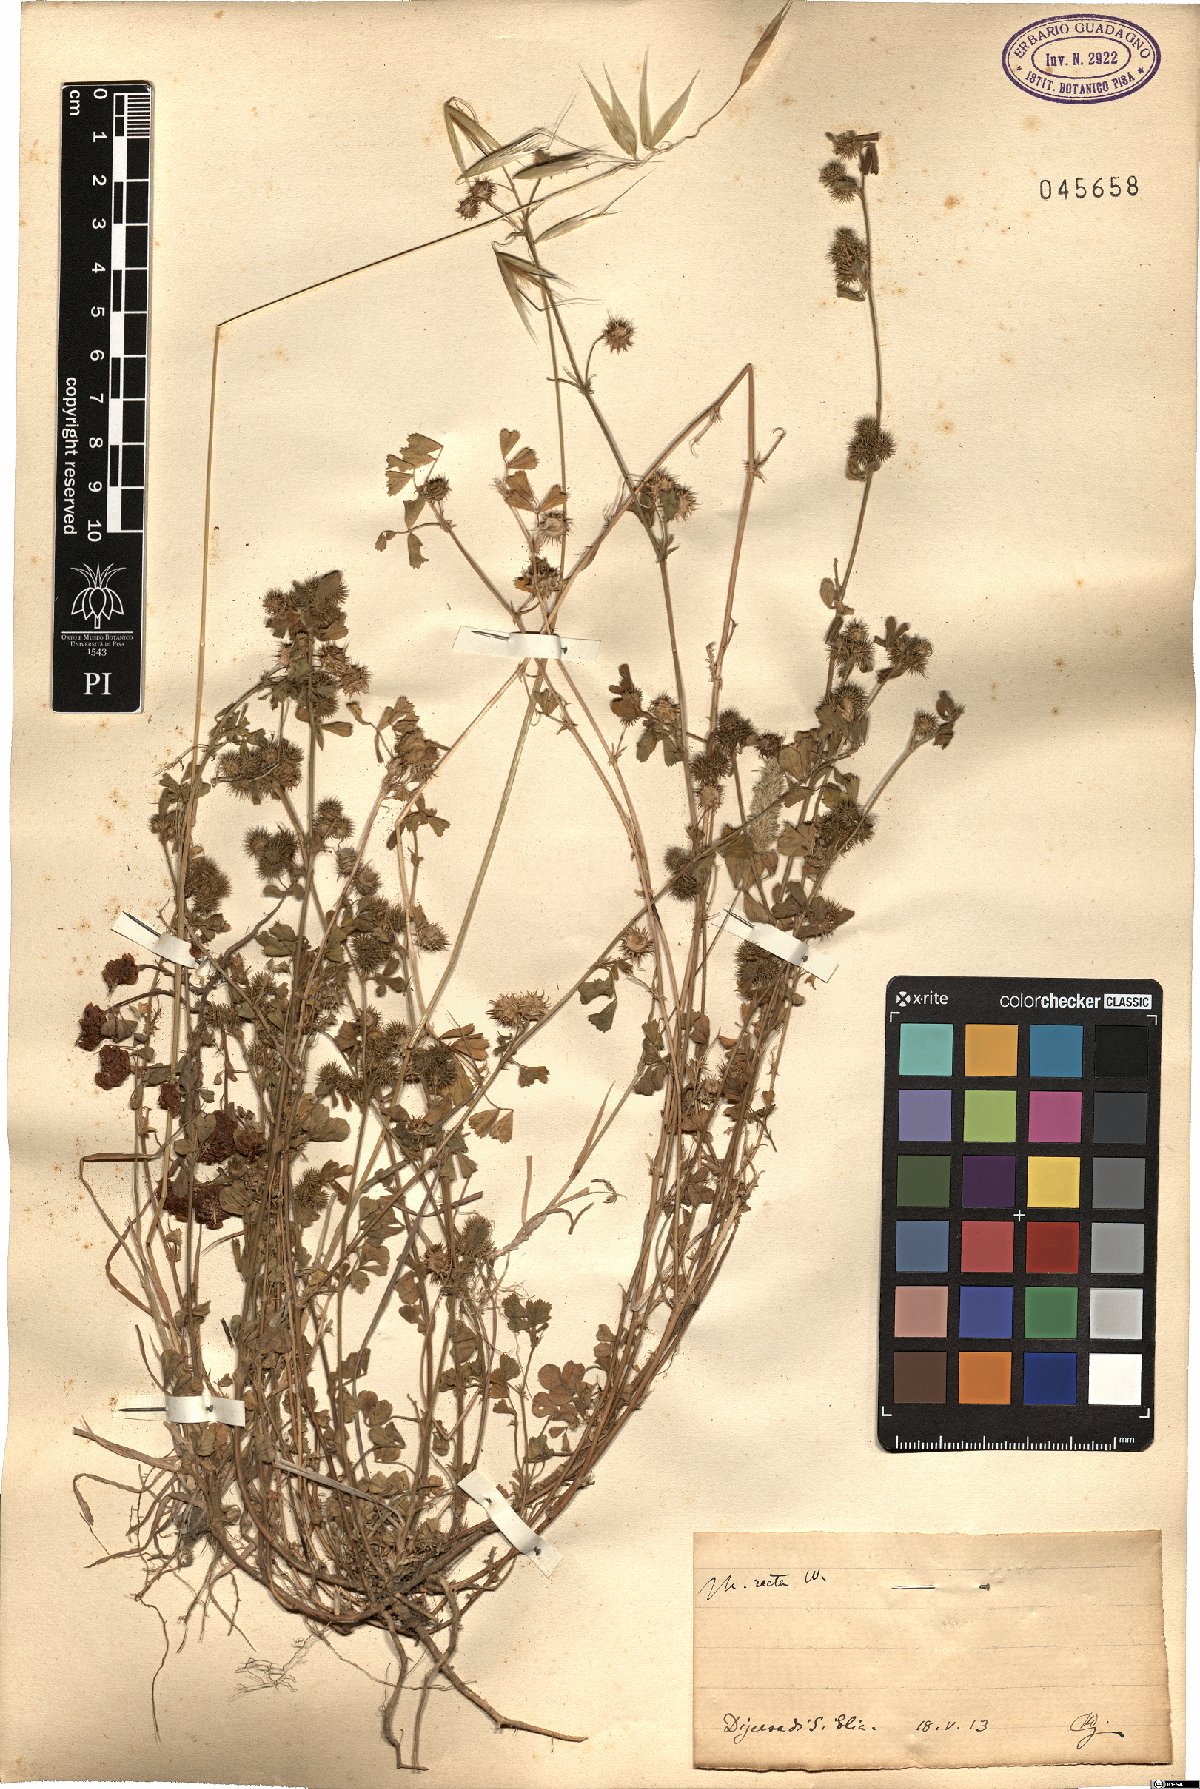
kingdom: Plantae
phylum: Tracheophyta
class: Magnoliopsida
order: Fabales
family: Fabaceae
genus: Medicago
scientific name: Medicago minima
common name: Little bur-clover
